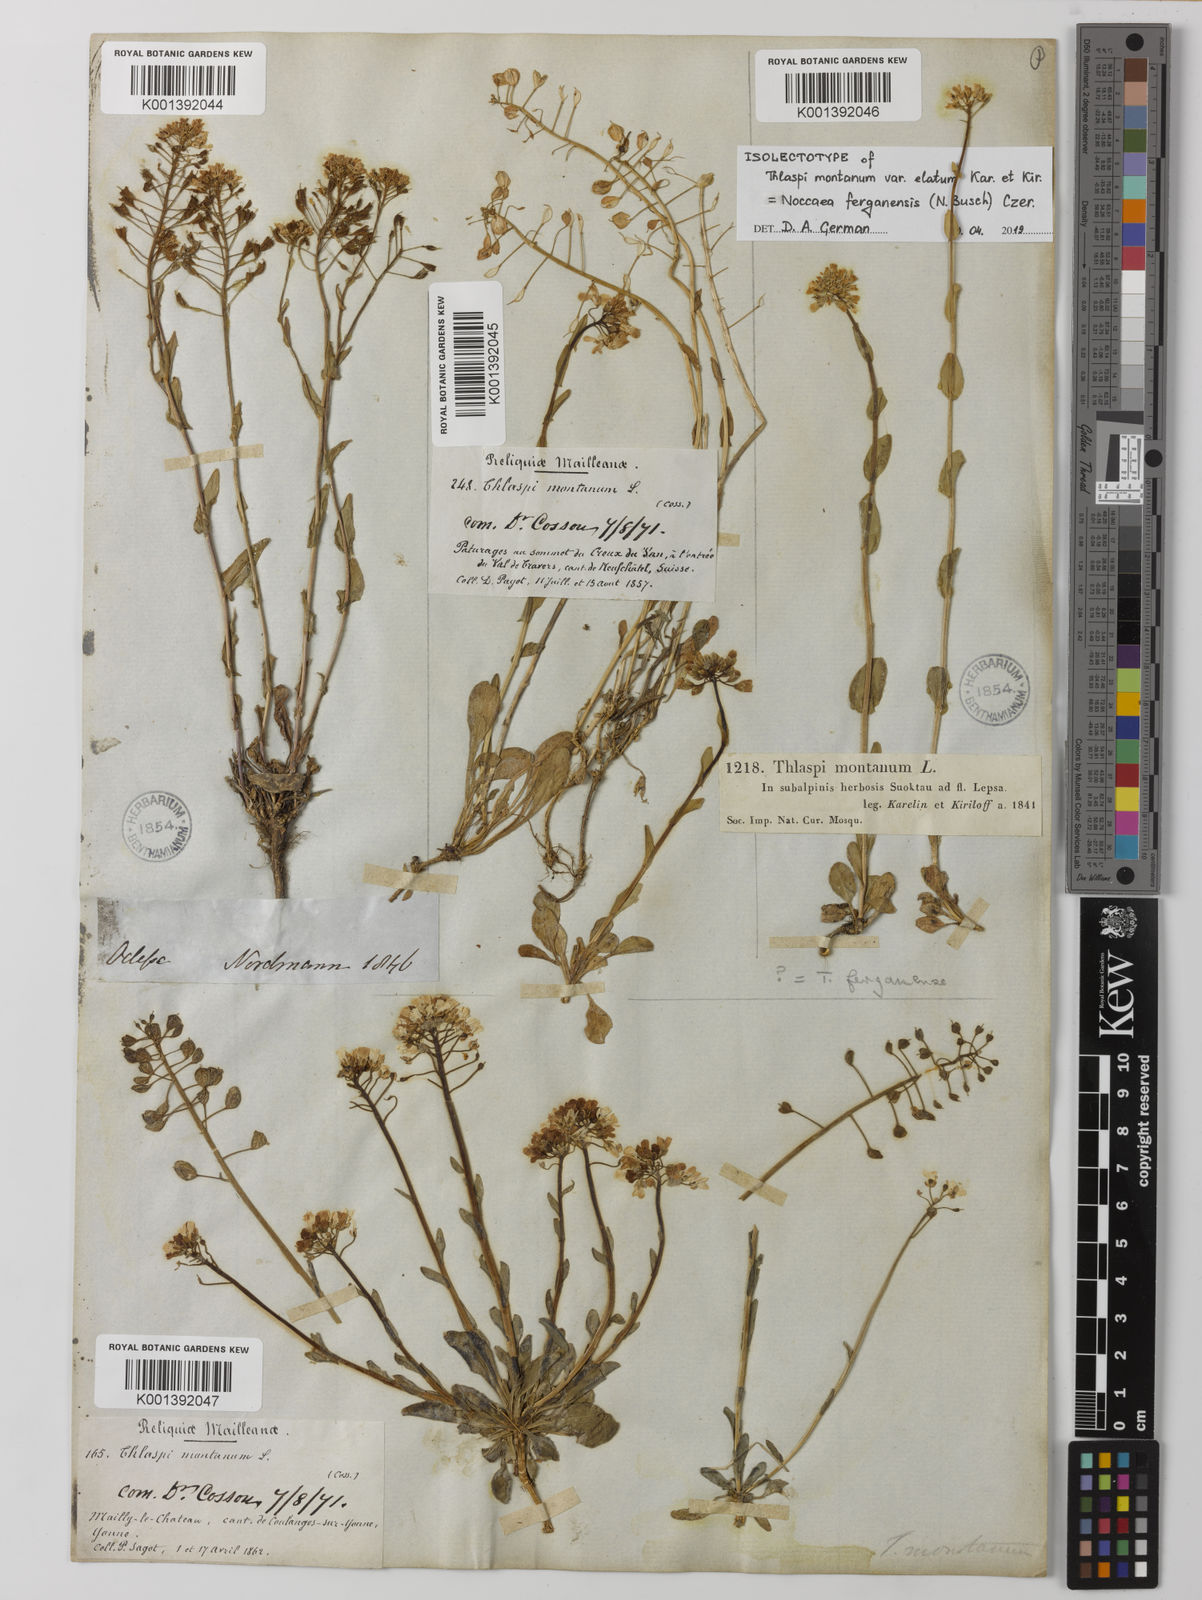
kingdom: Plantae
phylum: Tracheophyta
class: Magnoliopsida
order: Brassicales
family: Brassicaceae
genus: Noccaea
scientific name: Noccaea ferganensis
